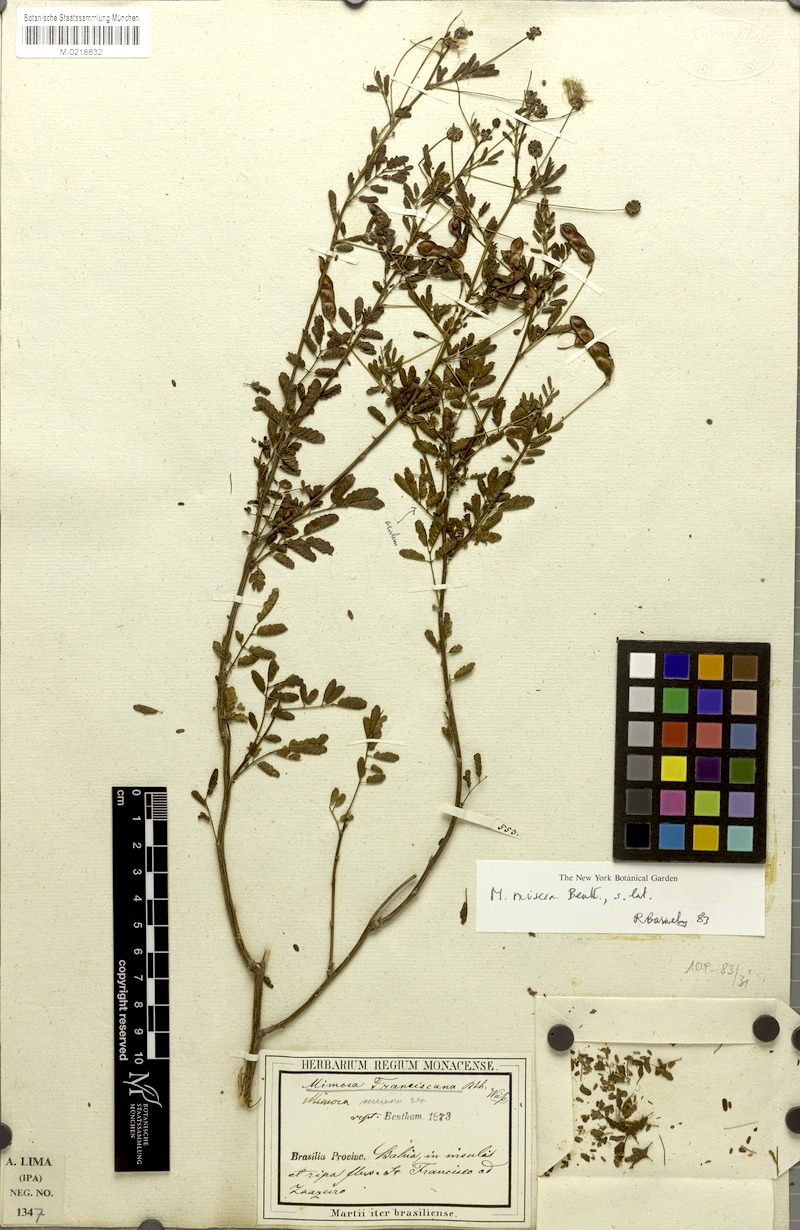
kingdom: Plantae
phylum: Tracheophyta
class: Magnoliopsida
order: Fabales
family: Fabaceae
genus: Mimosa
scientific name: Mimosa misera
